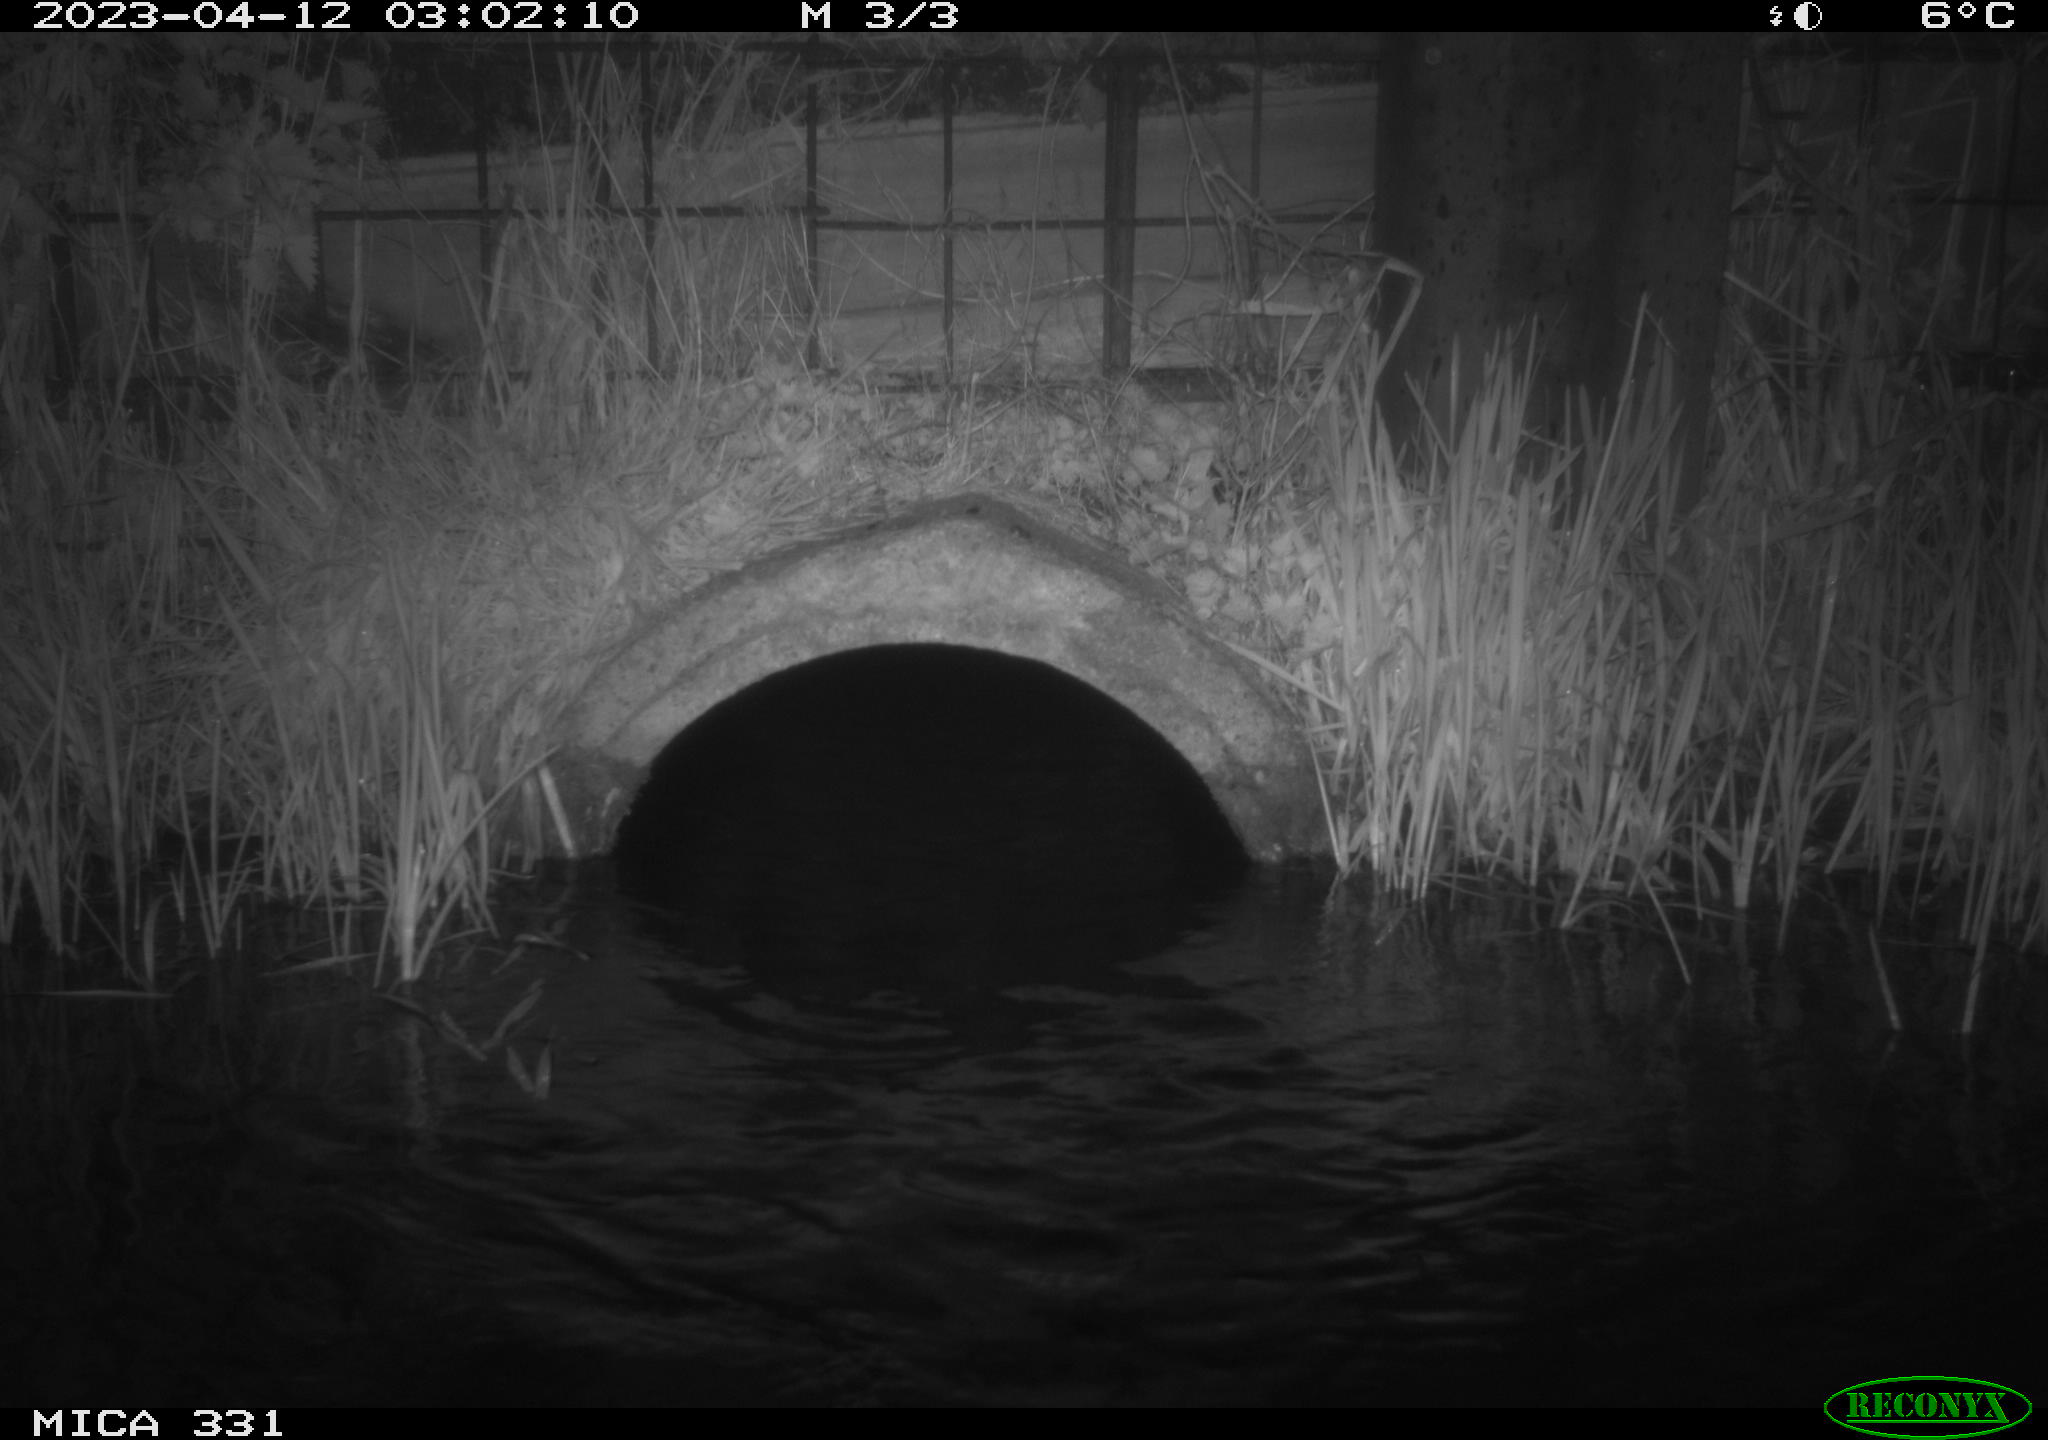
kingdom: Animalia
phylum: Chordata
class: Mammalia
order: Rodentia
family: Muridae
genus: Rattus
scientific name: Rattus norvegicus
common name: Brown rat
